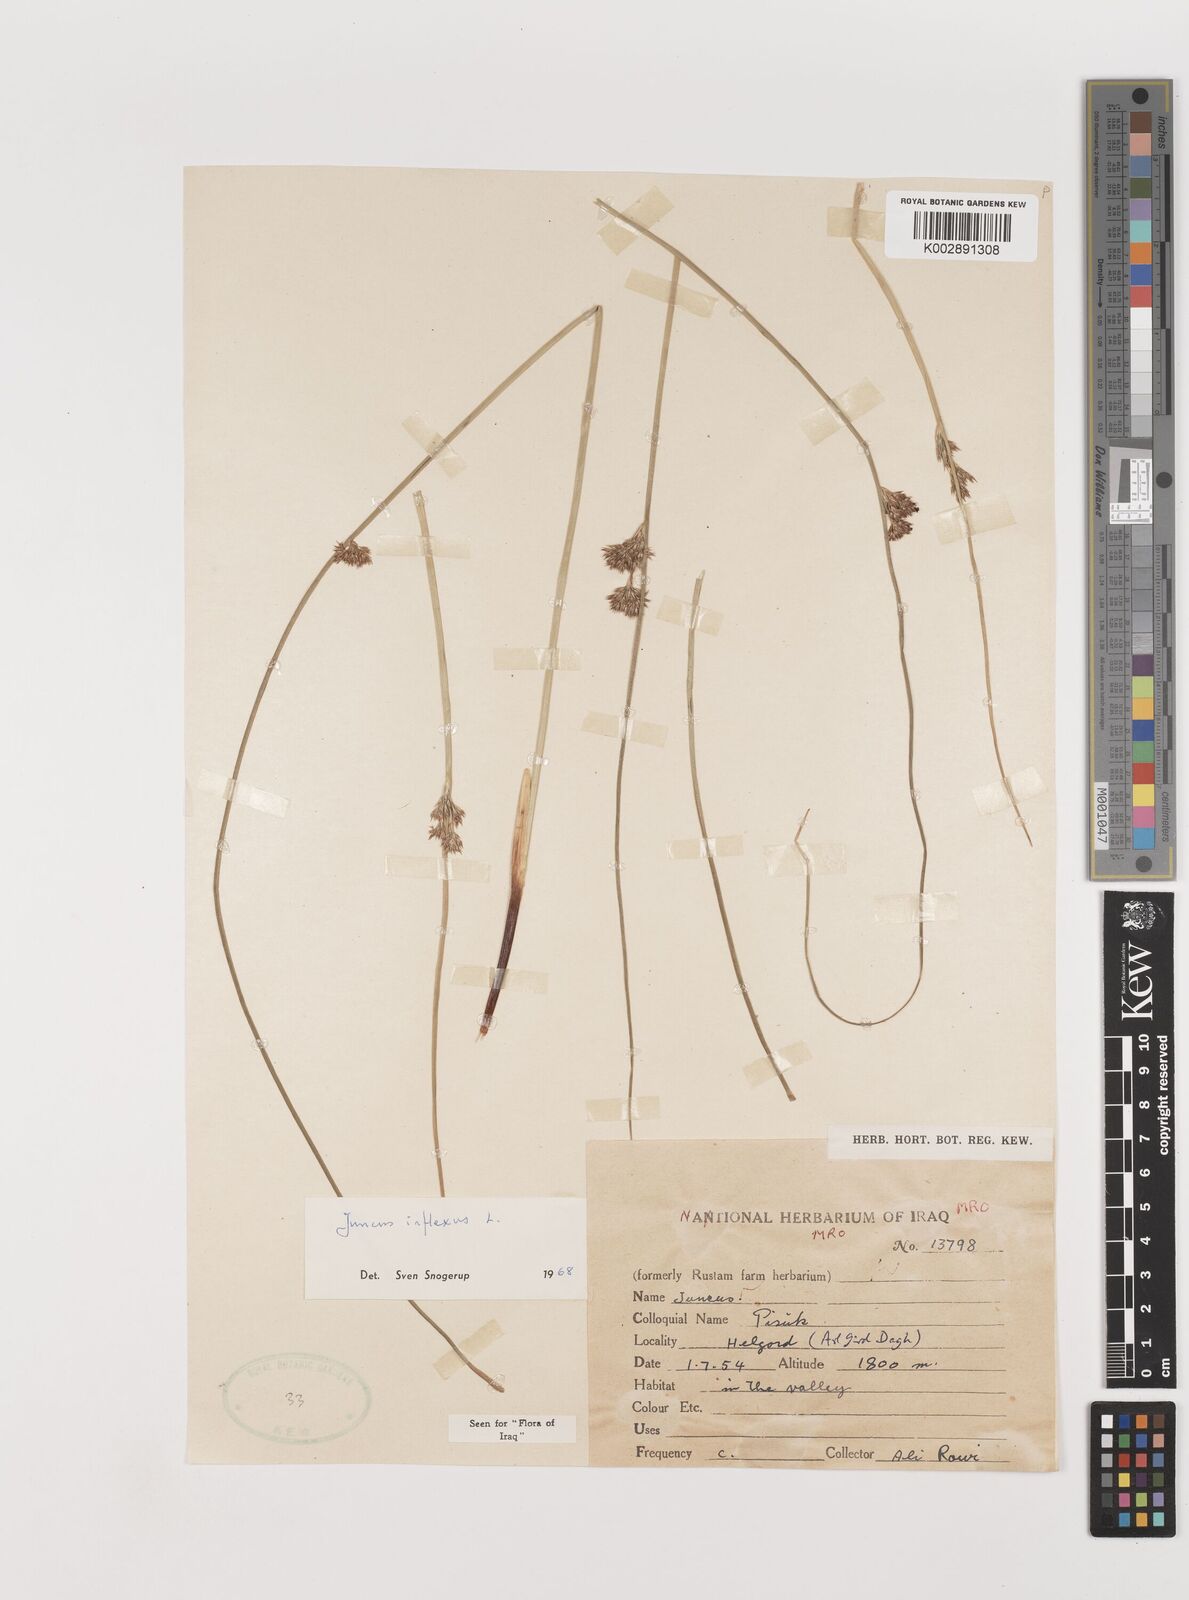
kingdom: Plantae
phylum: Tracheophyta
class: Liliopsida
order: Poales
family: Juncaceae
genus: Juncus
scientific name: Juncus inflexus
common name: Hard rush
